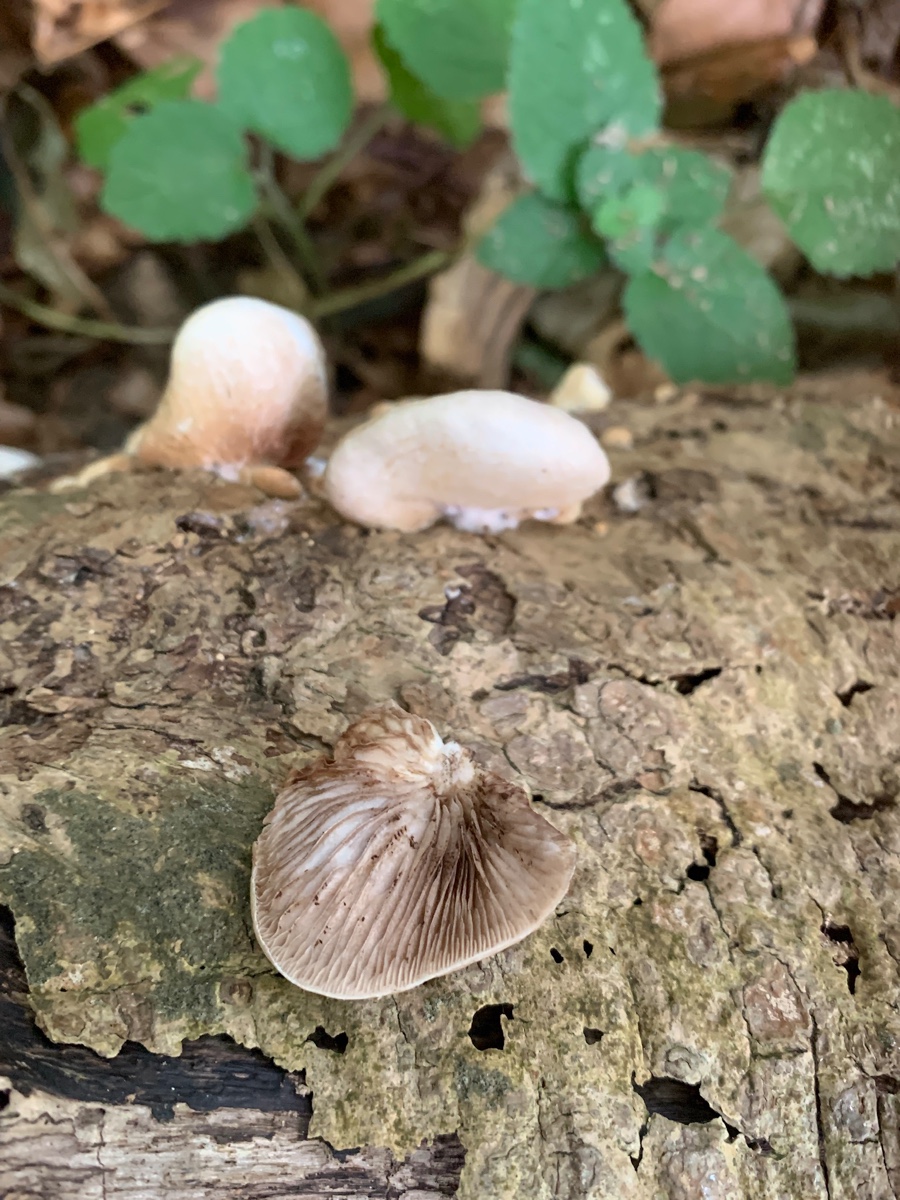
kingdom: Fungi
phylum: Basidiomycota
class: Agaricomycetes
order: Agaricales
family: Crepidotaceae
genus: Crepidotus
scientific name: Crepidotus mollis
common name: blød muslingesvamp
